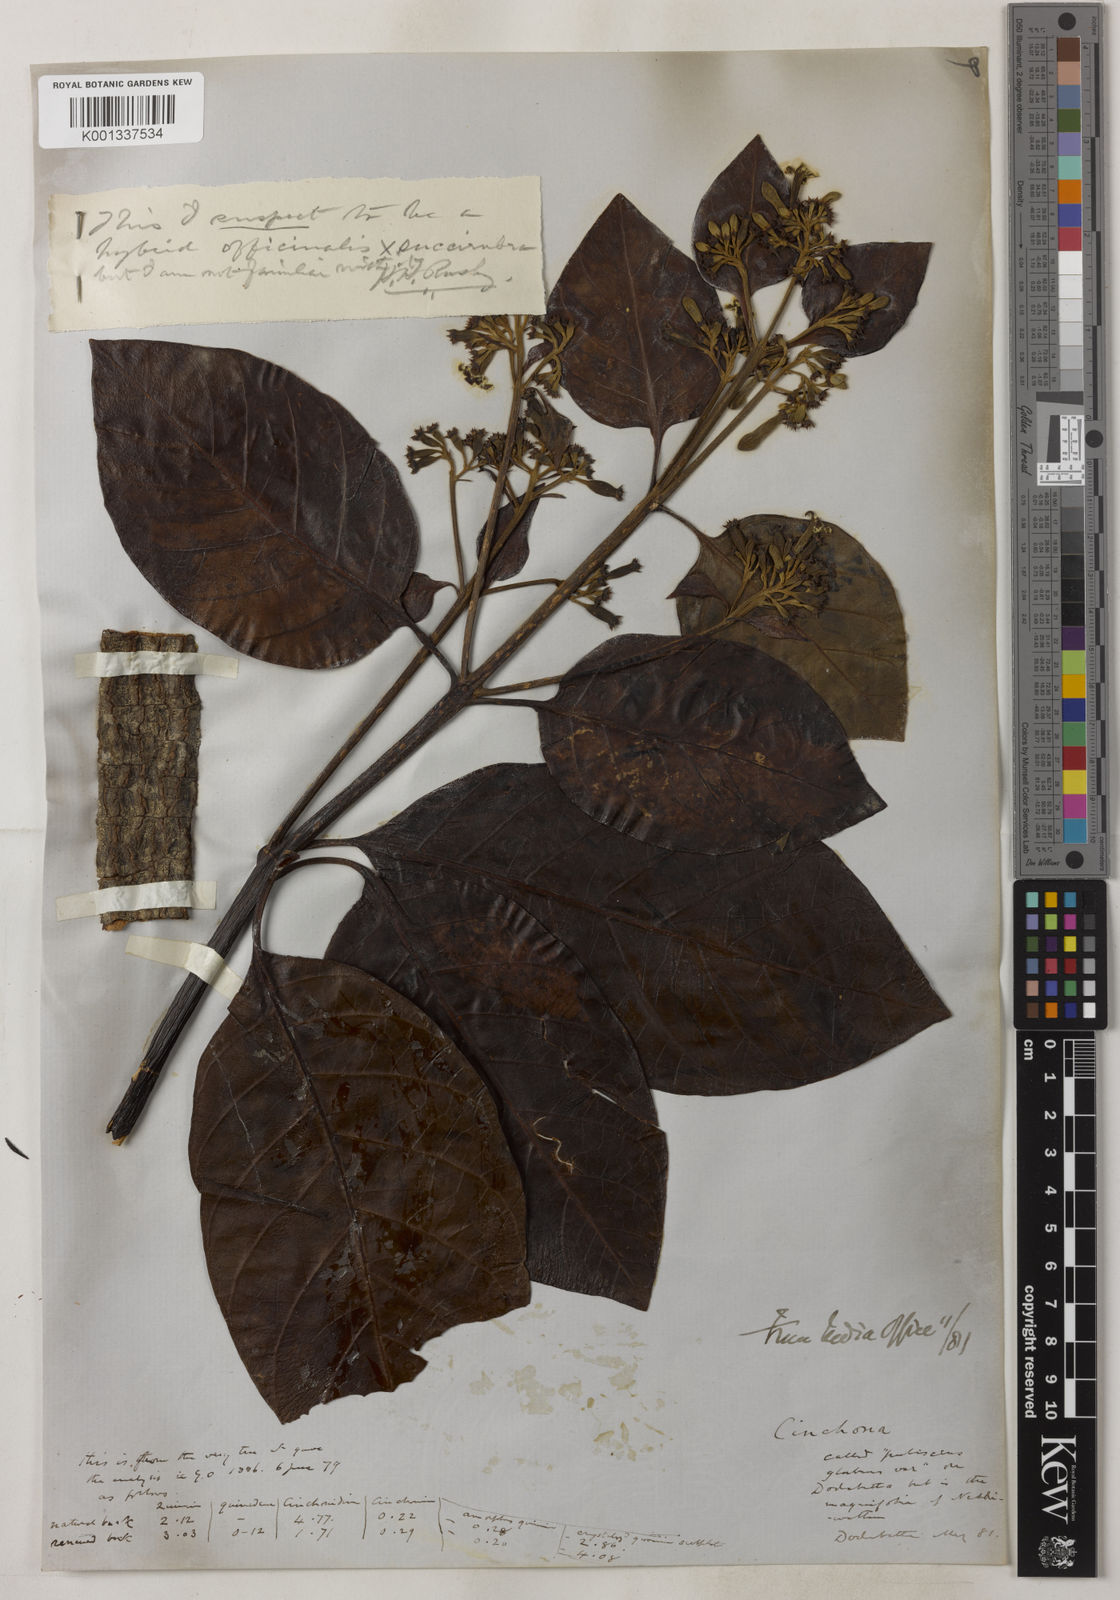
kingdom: Plantae
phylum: Tracheophyta
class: Magnoliopsida
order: Gentianales
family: Rubiaceae
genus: Cinchona
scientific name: Cinchona calisaya
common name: Ledgerbark
